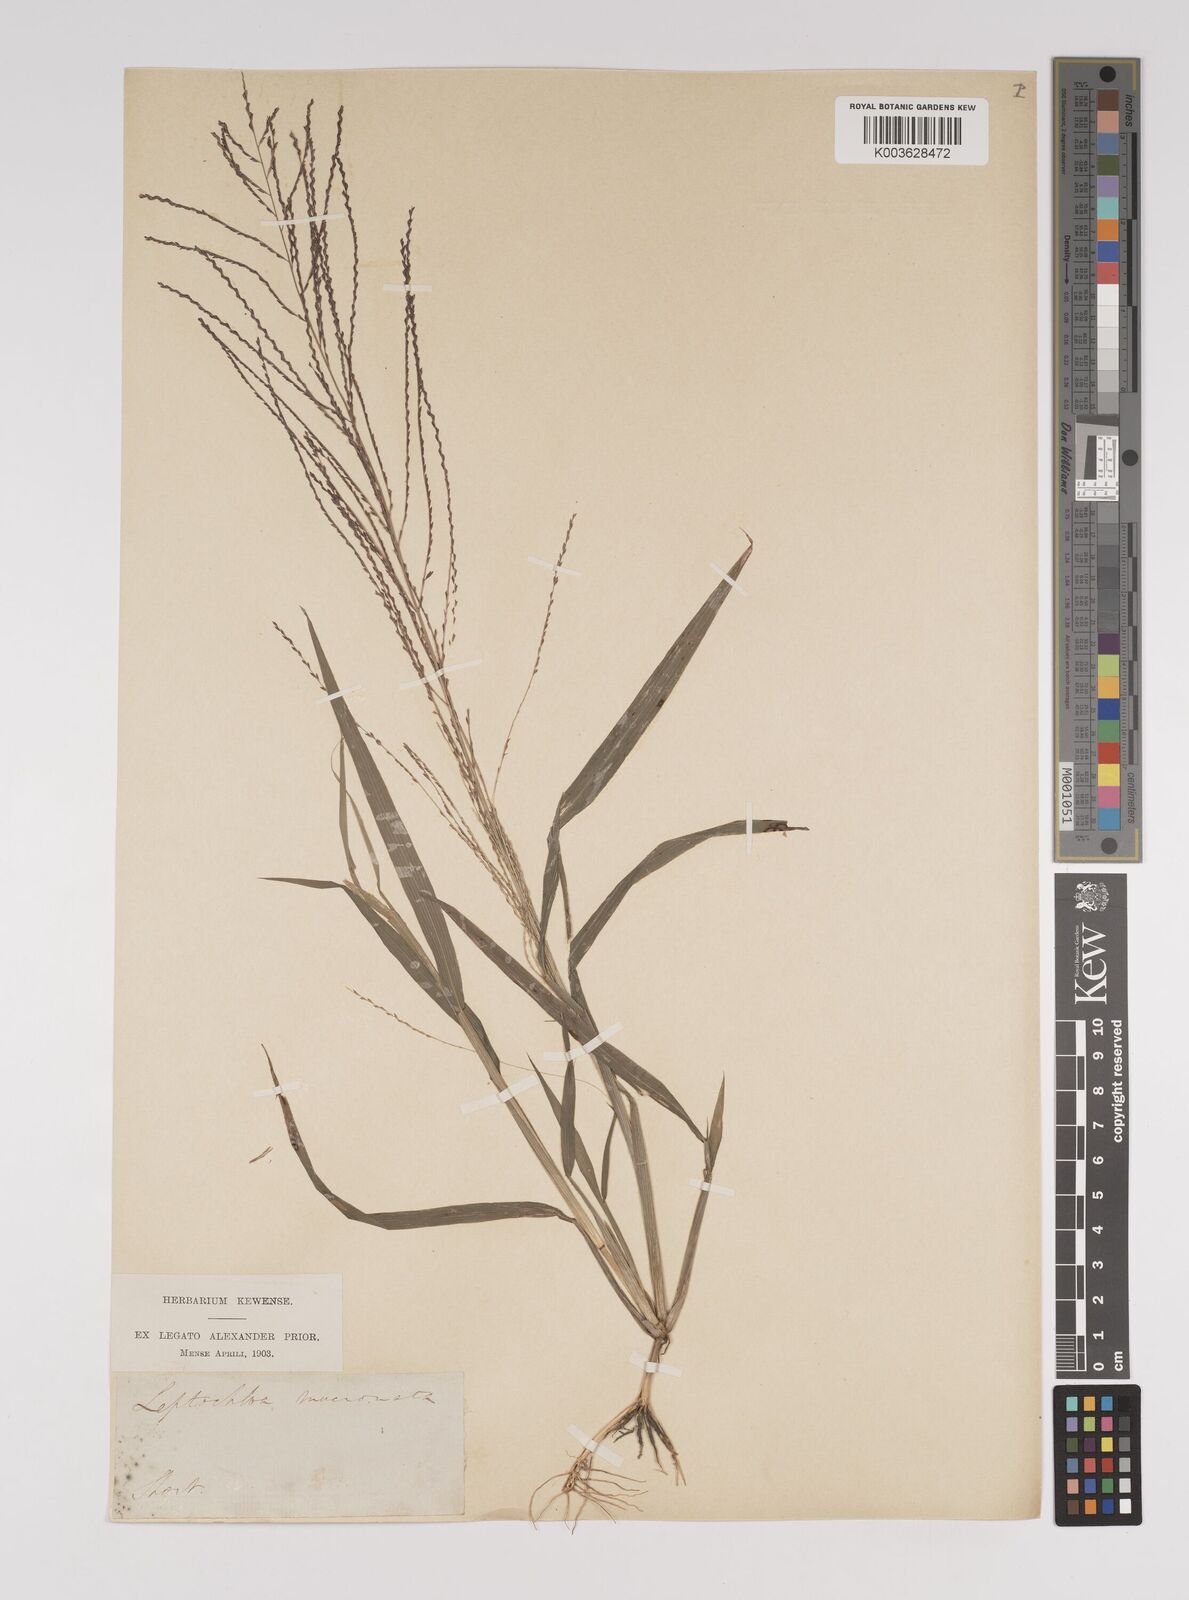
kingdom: Plantae
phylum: Tracheophyta
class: Liliopsida
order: Poales
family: Poaceae
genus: Leptochloa
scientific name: Leptochloa panicea
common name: Mucronate sprangletop
